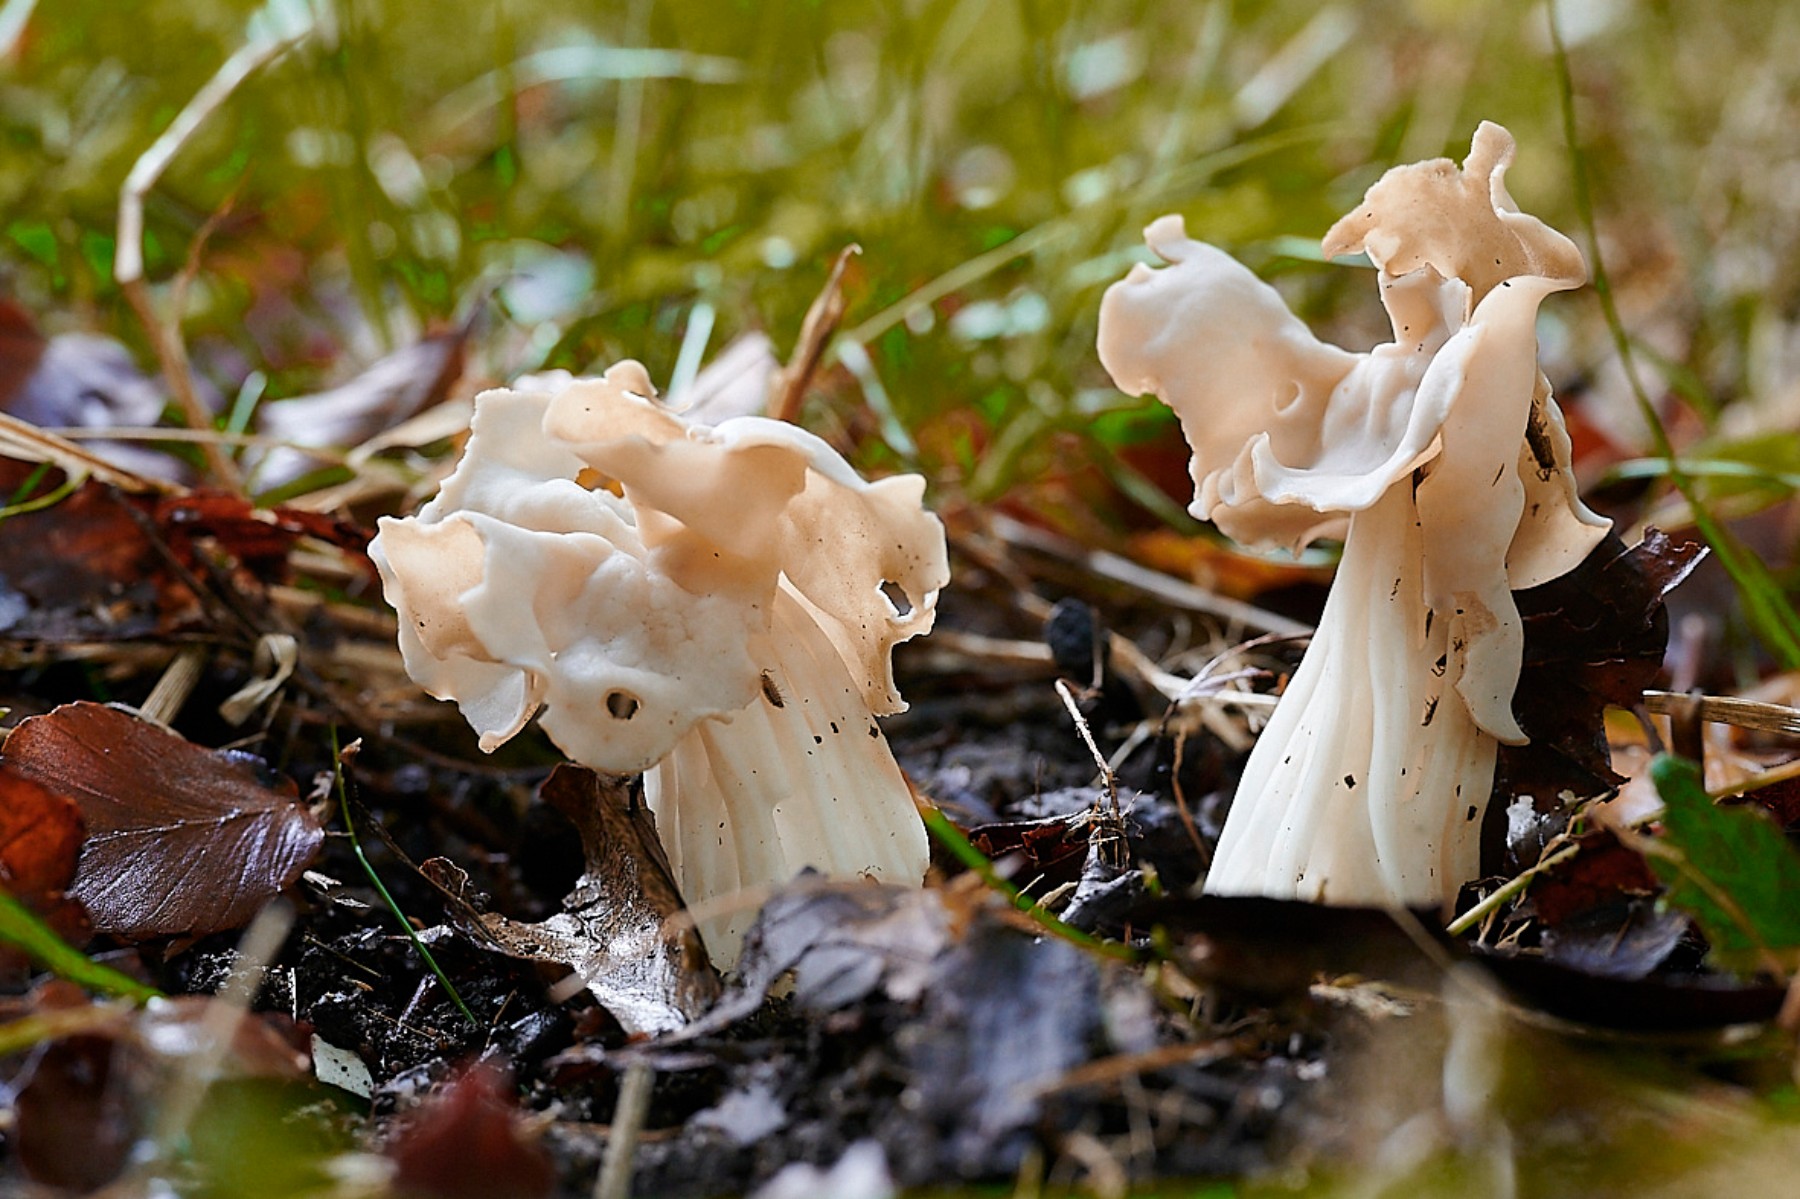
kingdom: Fungi
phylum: Ascomycota
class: Pezizomycetes
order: Pezizales
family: Helvellaceae
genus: Helvella
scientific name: Helvella crispa
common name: kruset foldhat
